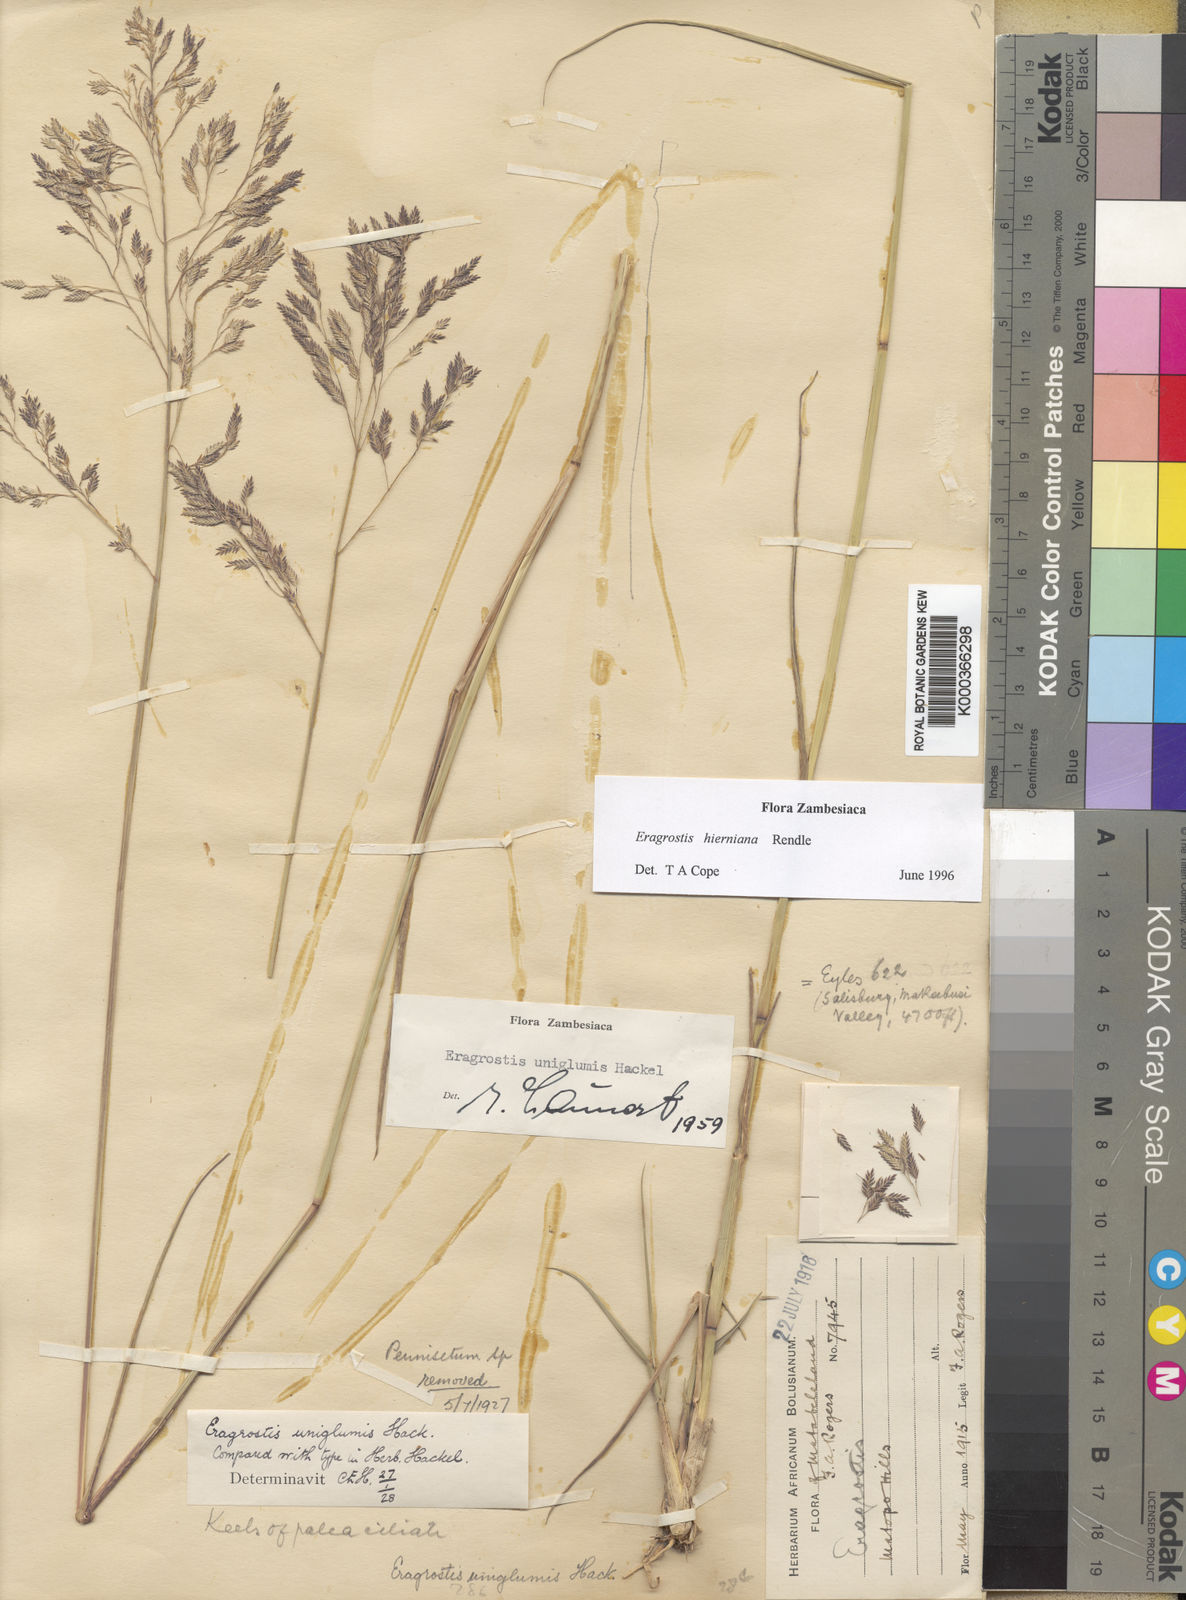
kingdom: Plantae
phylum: Tracheophyta
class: Liliopsida
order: Poales
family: Poaceae
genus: Eragrostis
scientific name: Eragrostis hierniana
